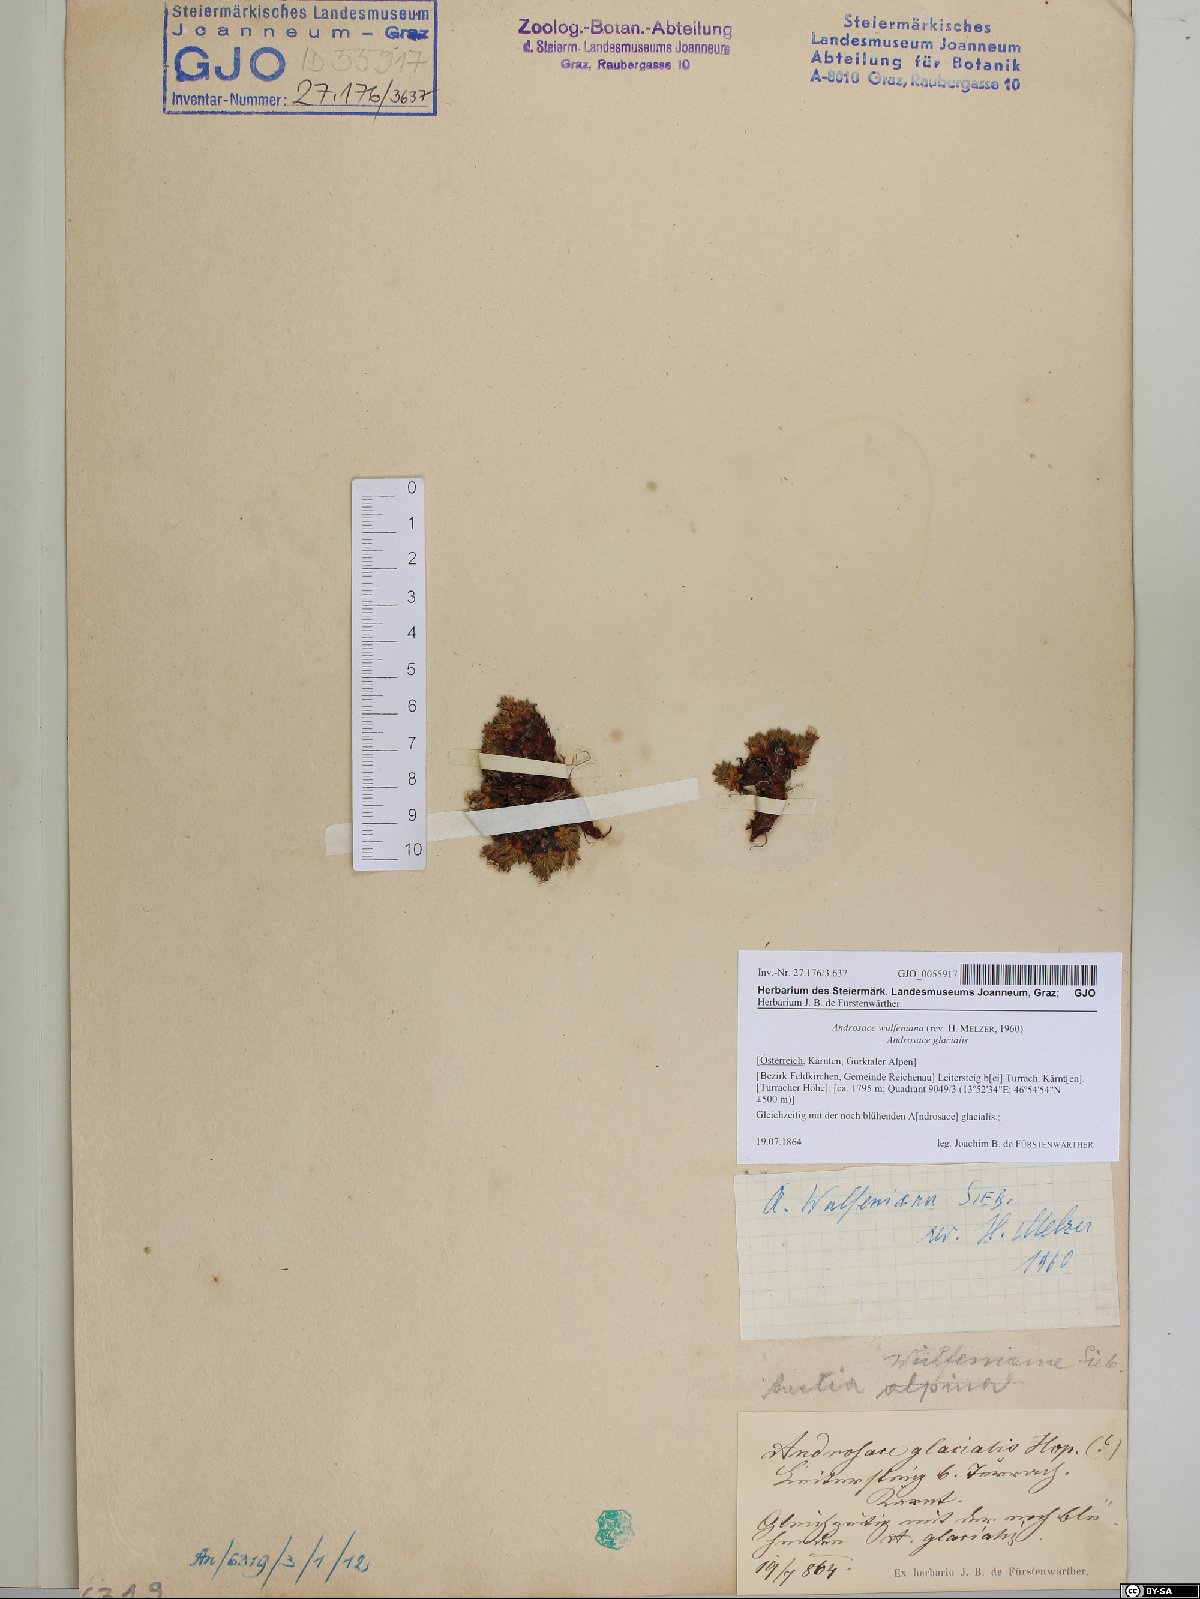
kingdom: Plantae
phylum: Tracheophyta
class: Magnoliopsida
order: Ericales
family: Primulaceae
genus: Androsace
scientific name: Androsace wulfeniana
